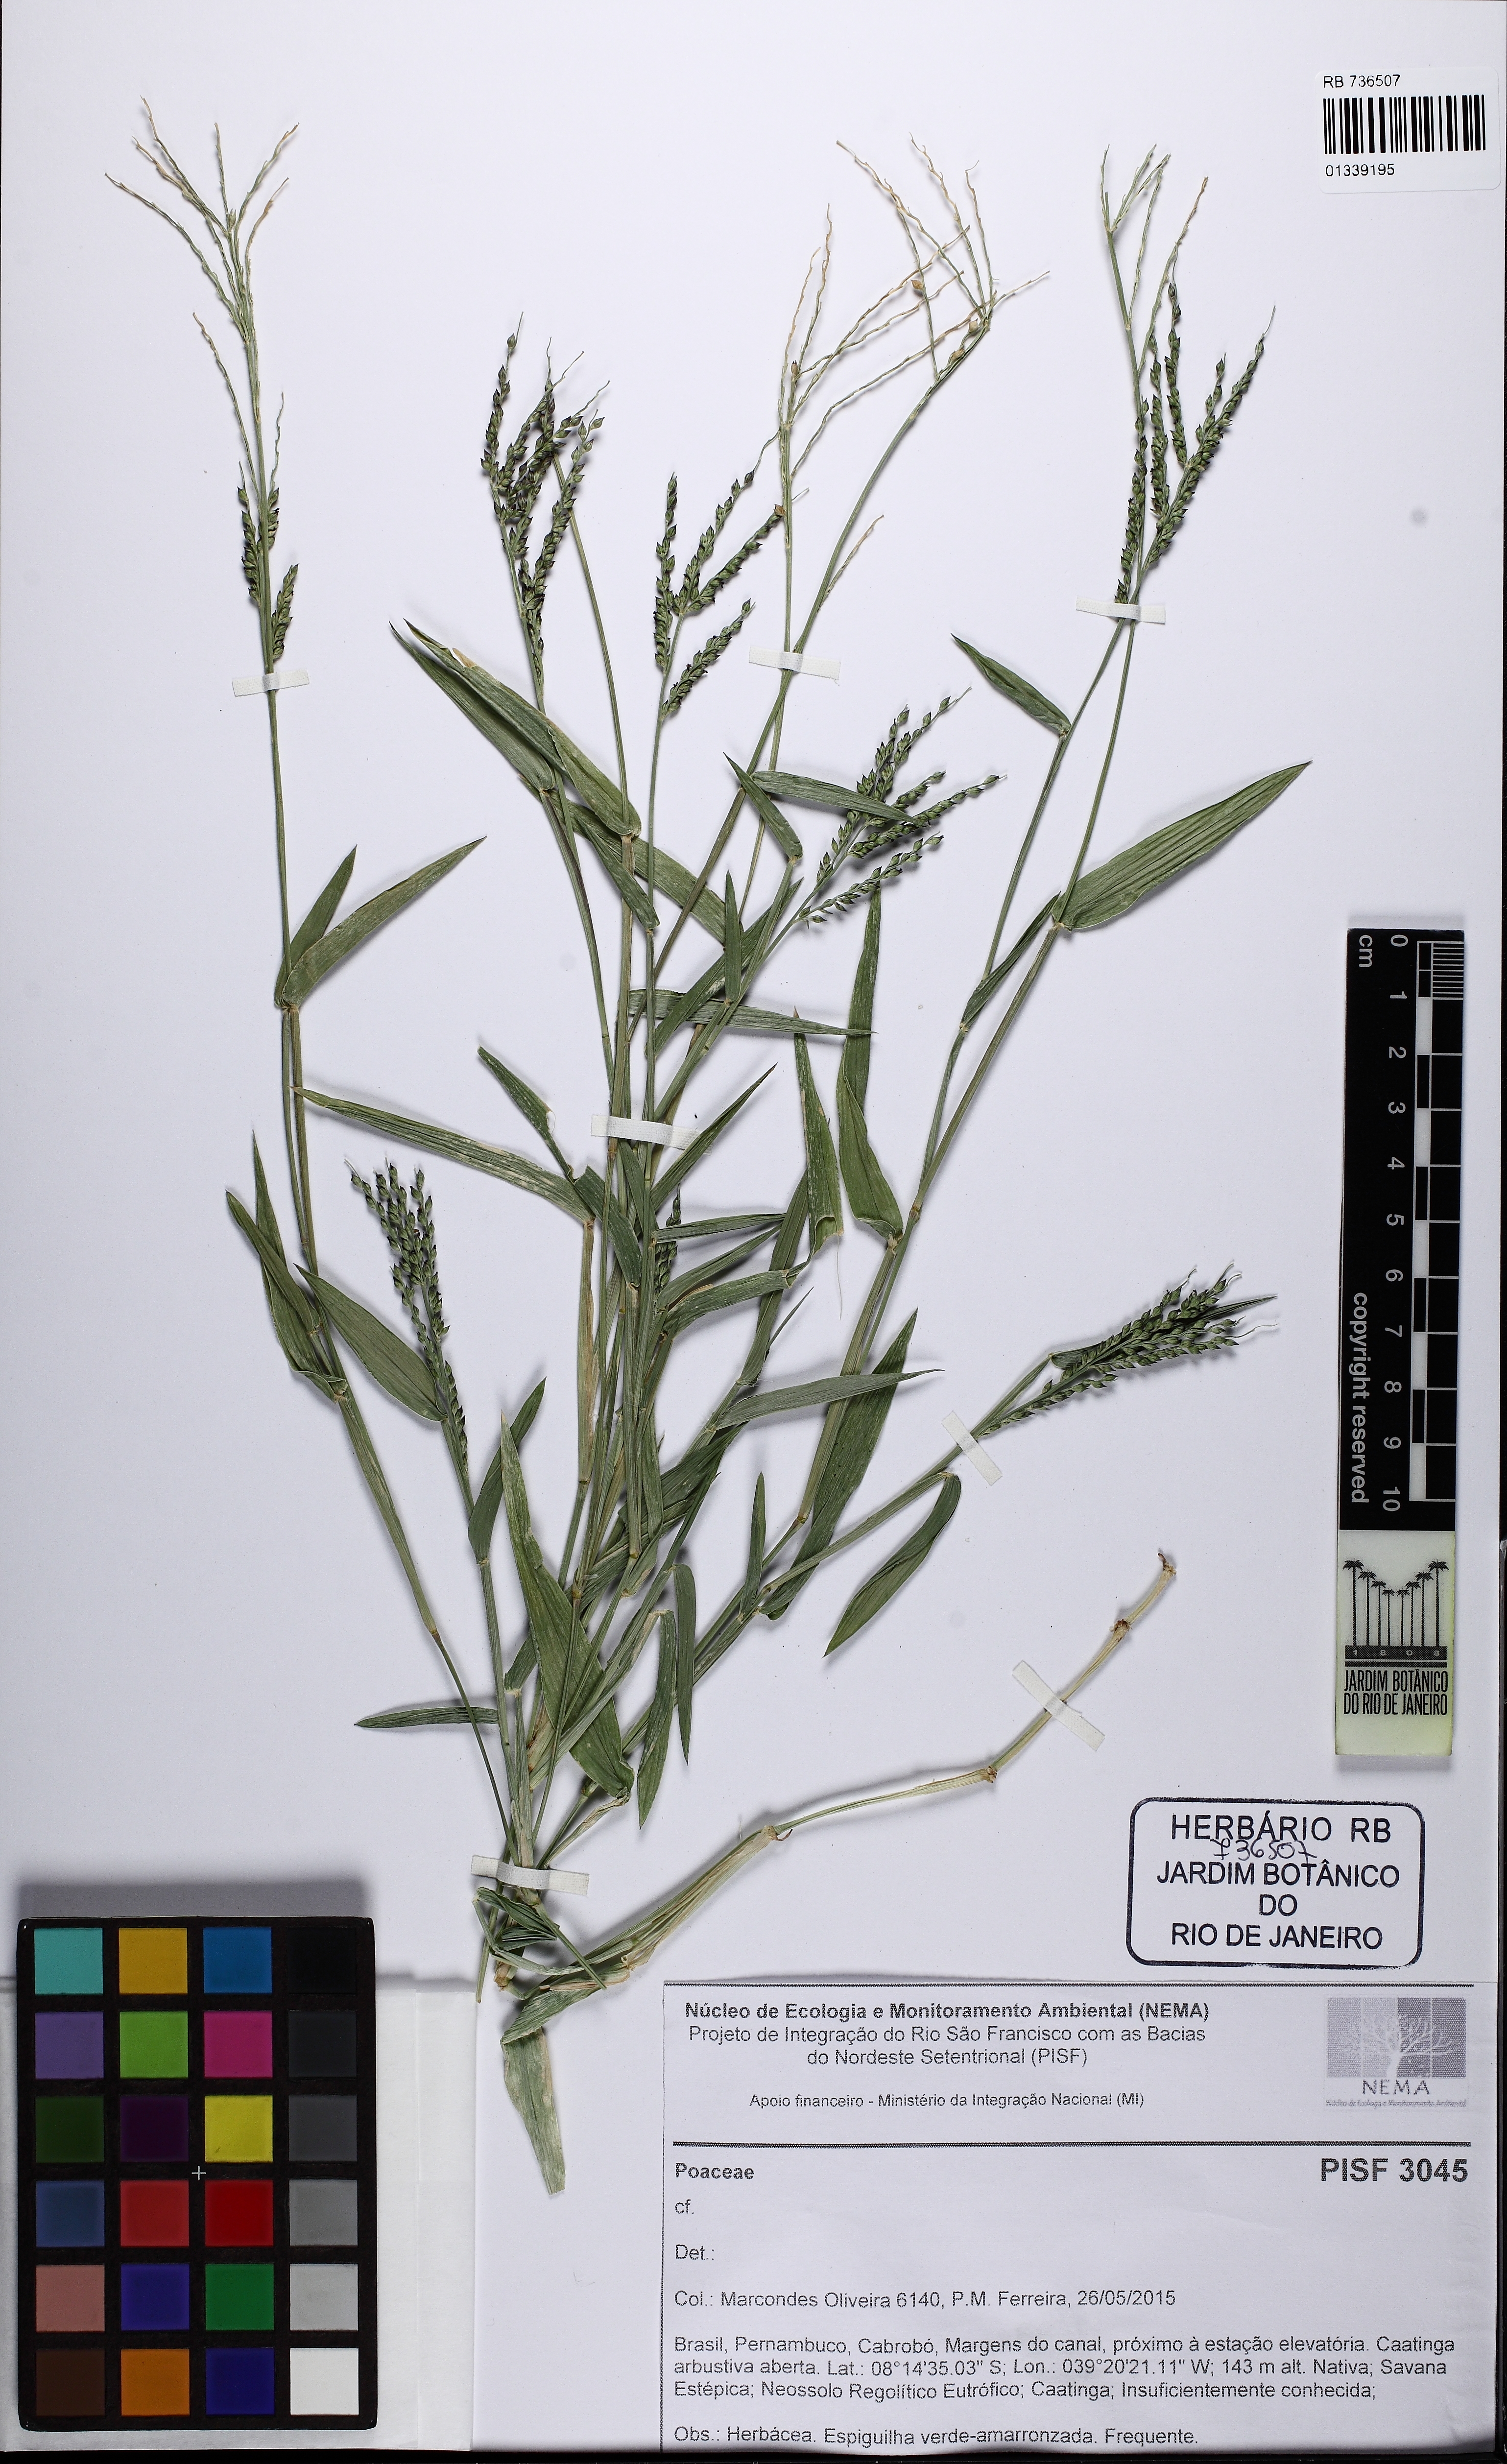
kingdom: Plantae
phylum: Tracheophyta
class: Liliopsida
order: Poales
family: Poaceae
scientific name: Poaceae
